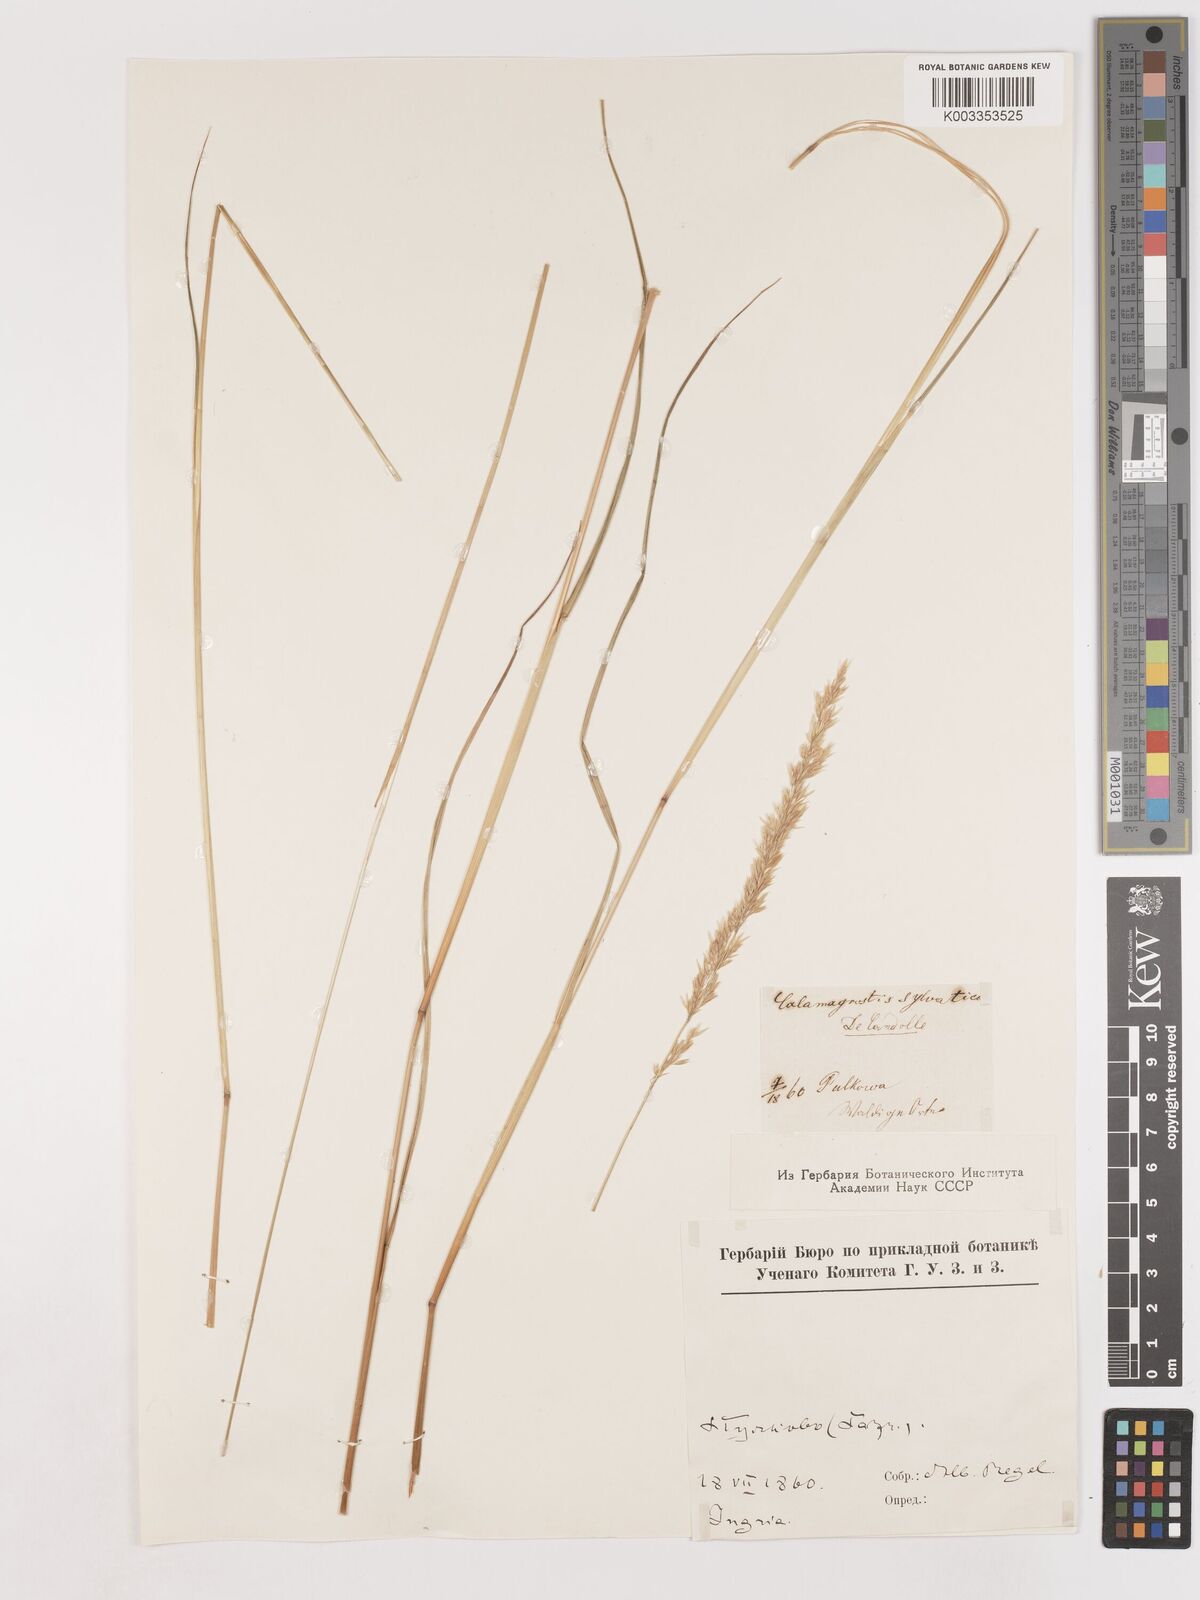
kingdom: Plantae
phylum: Tracheophyta
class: Liliopsida
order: Poales
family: Poaceae
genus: Calamagrostis
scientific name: Calamagrostis
